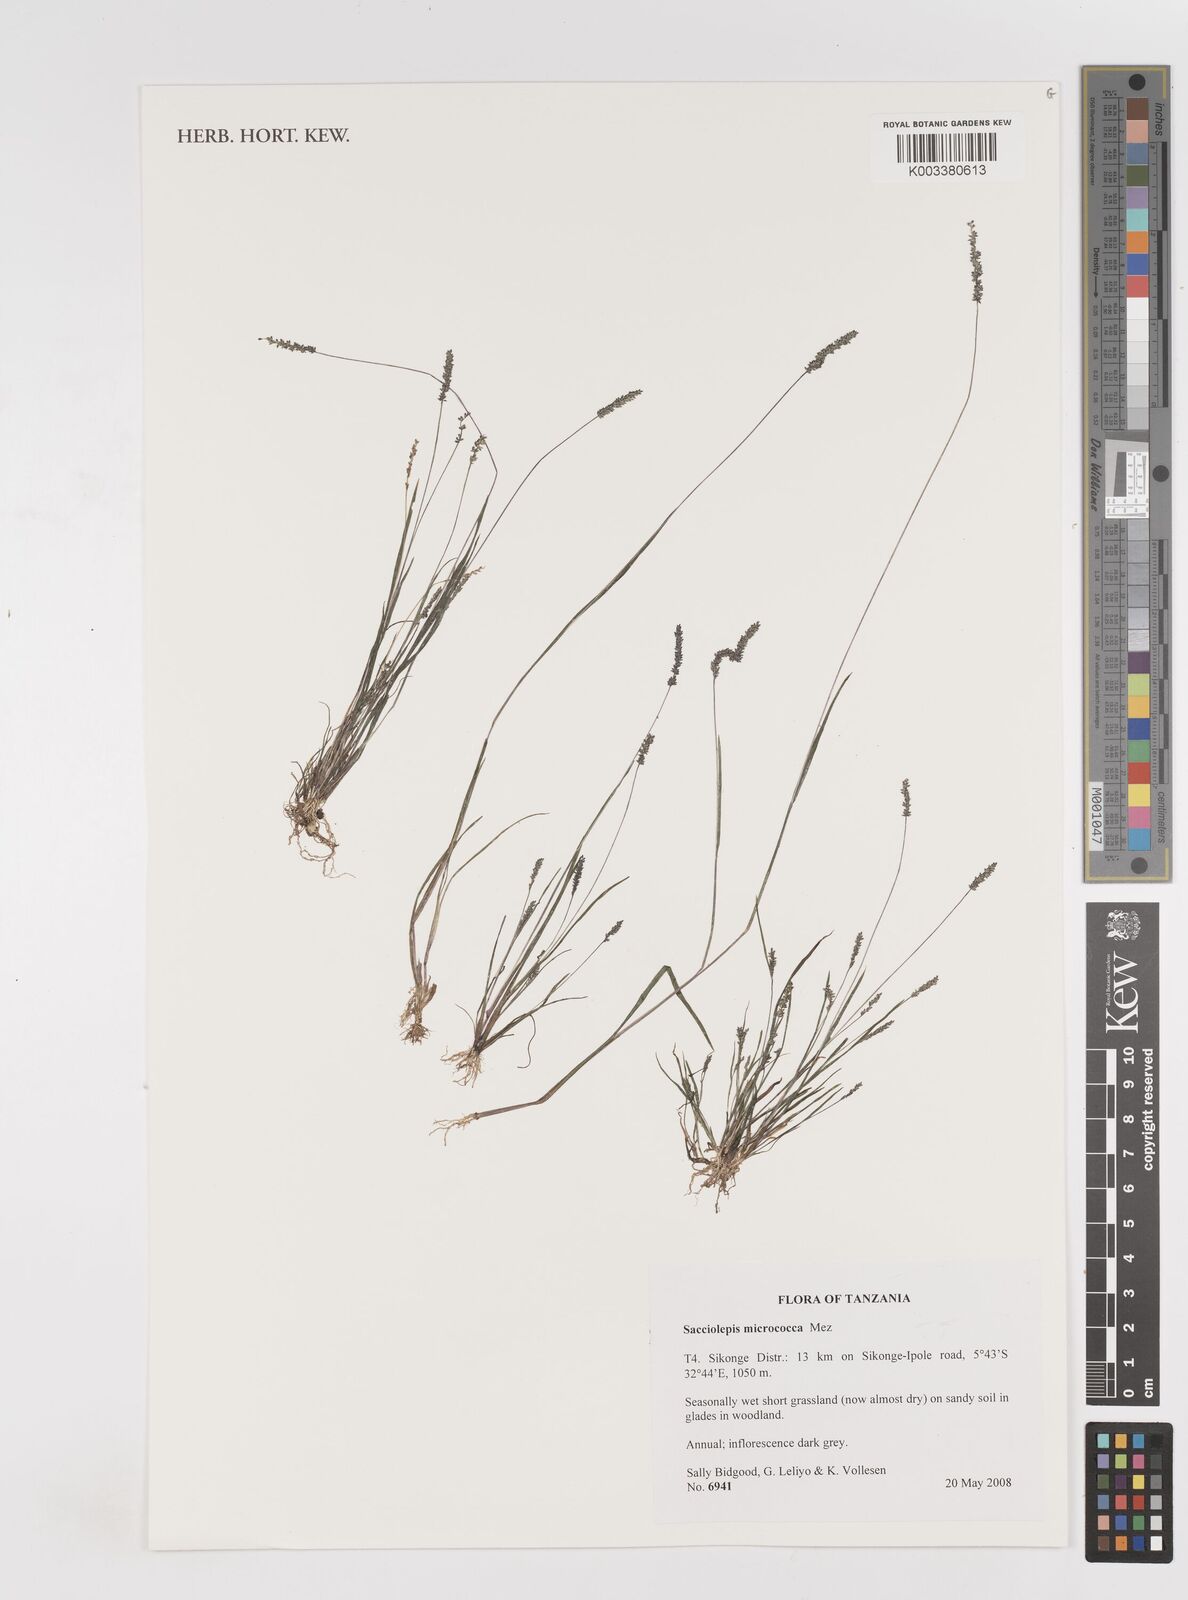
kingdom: Plantae
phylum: Tracheophyta
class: Liliopsida
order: Poales
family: Poaceae
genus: Sacciolepis
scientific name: Sacciolepis micrococca
